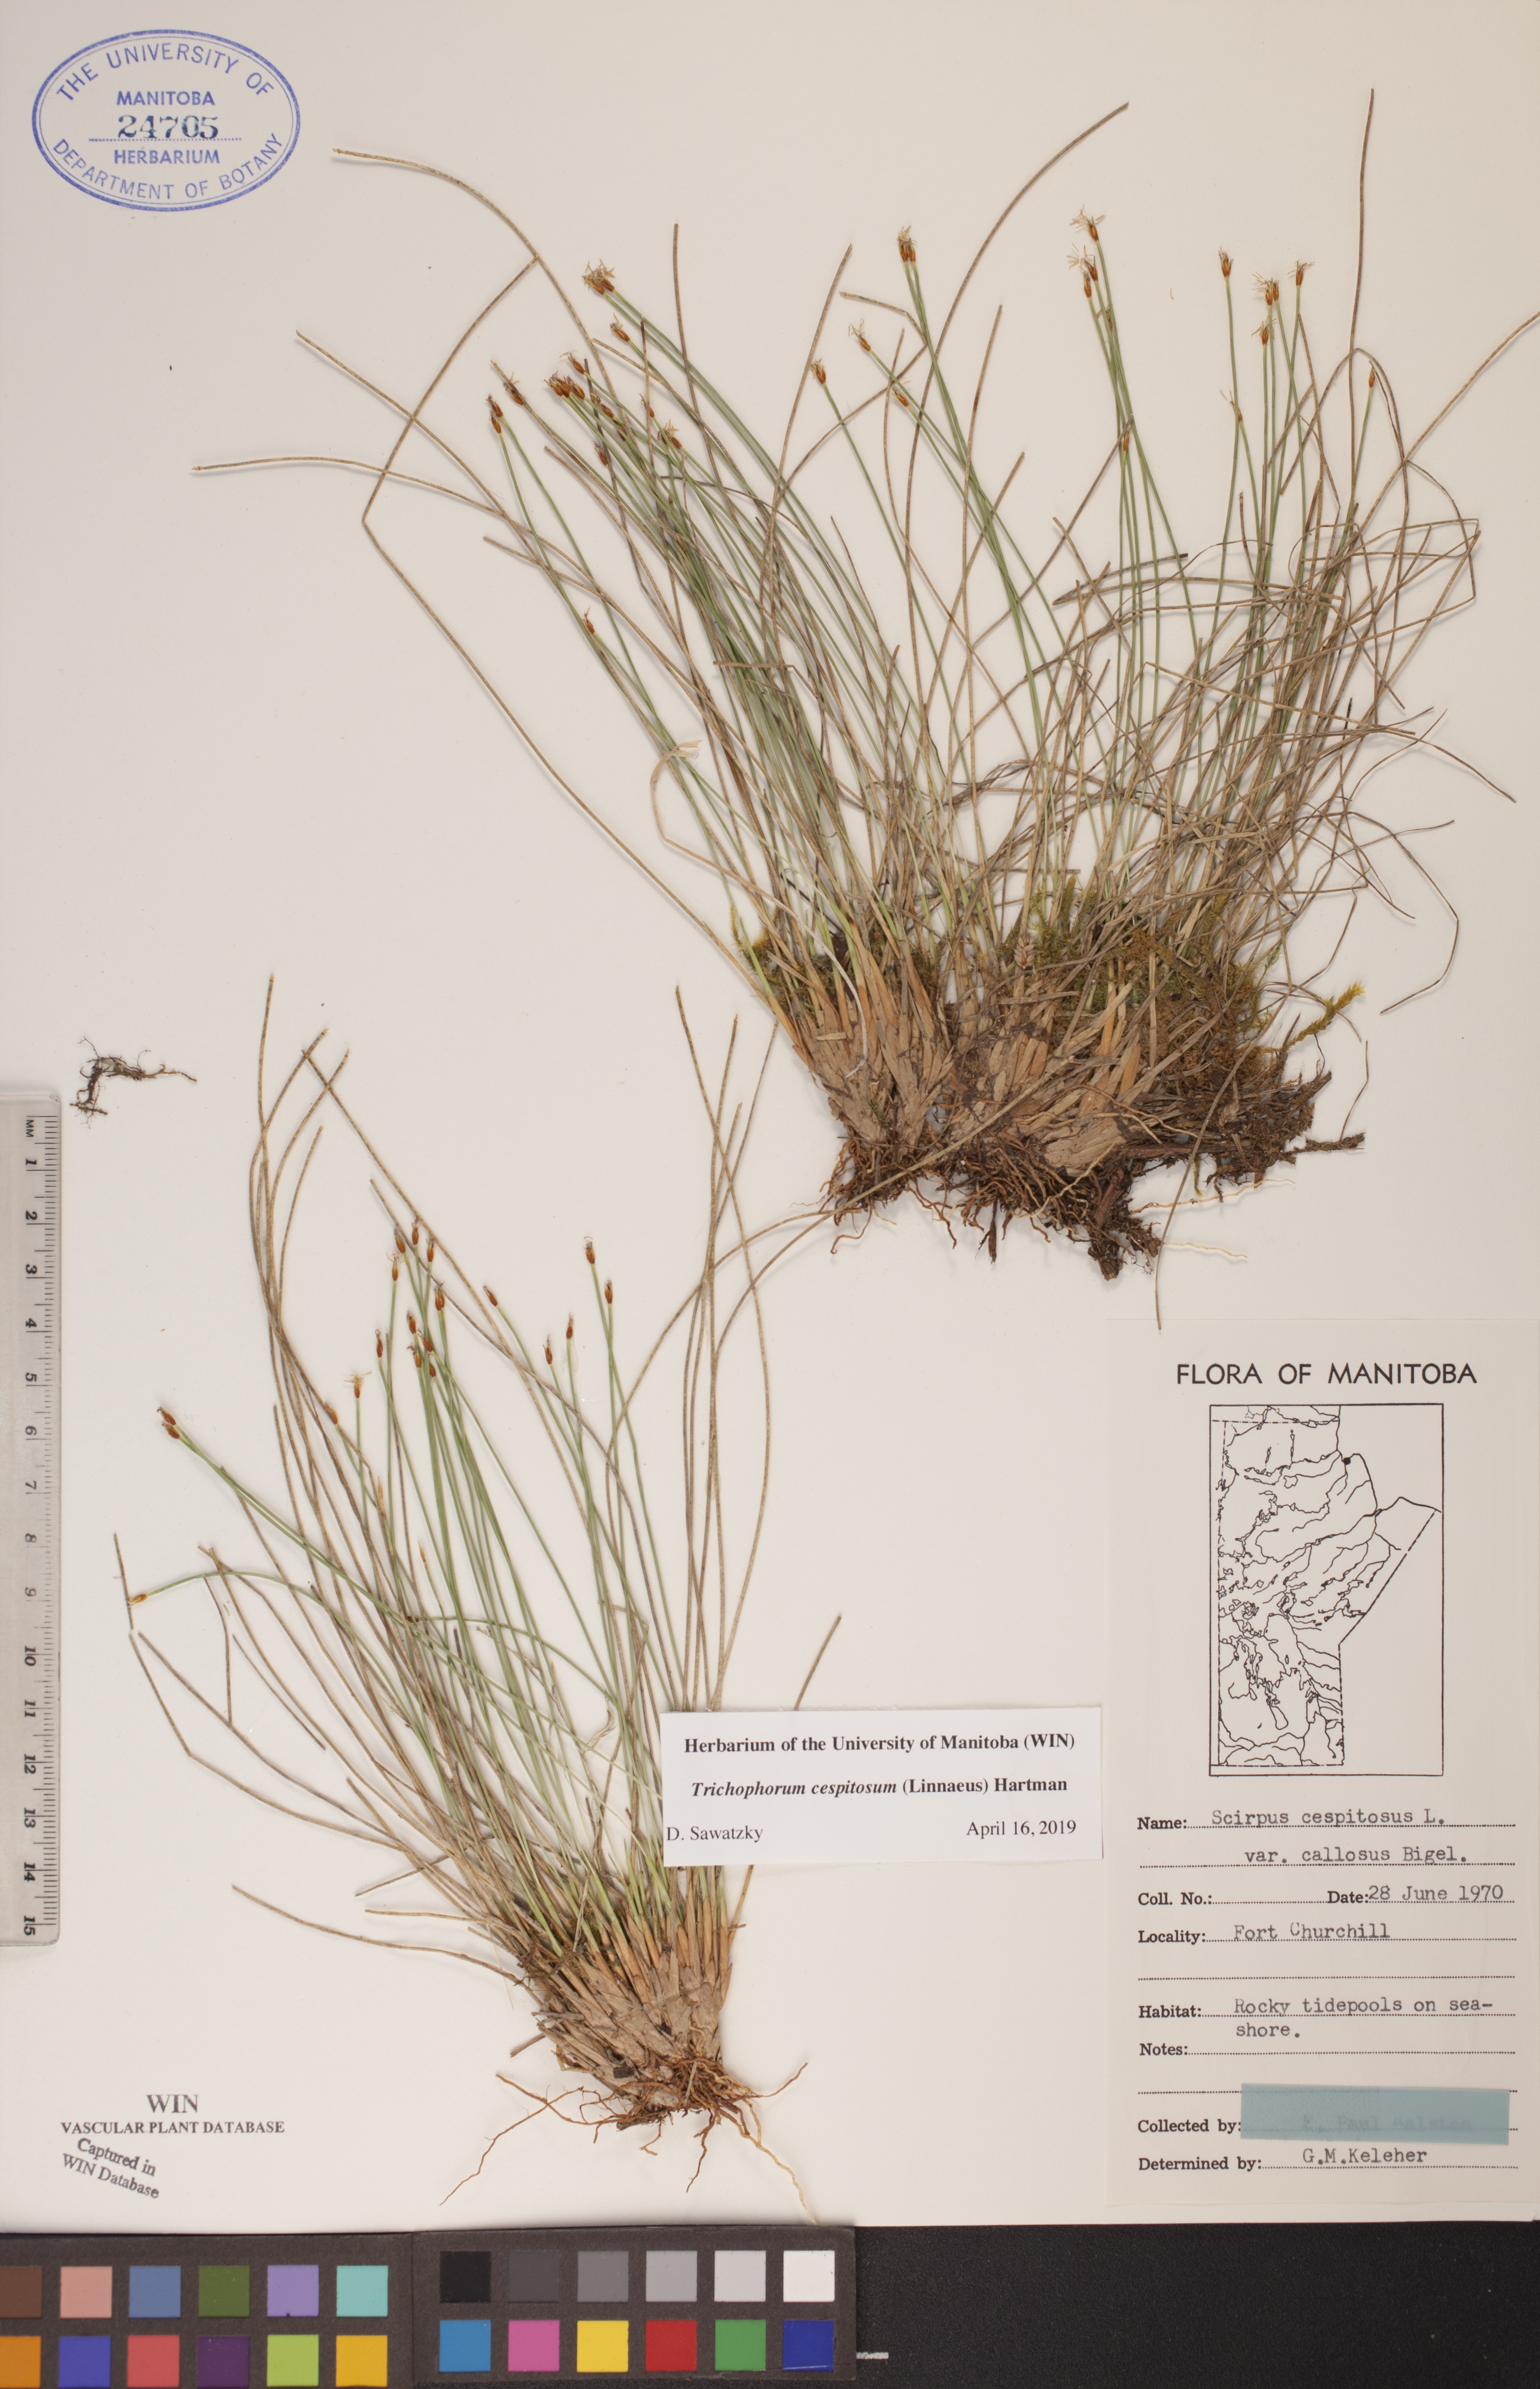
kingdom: Plantae
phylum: Tracheophyta
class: Liliopsida
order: Poales
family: Cyperaceae
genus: Trichophorum
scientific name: Trichophorum cespitosum
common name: Cespitose bulrush
